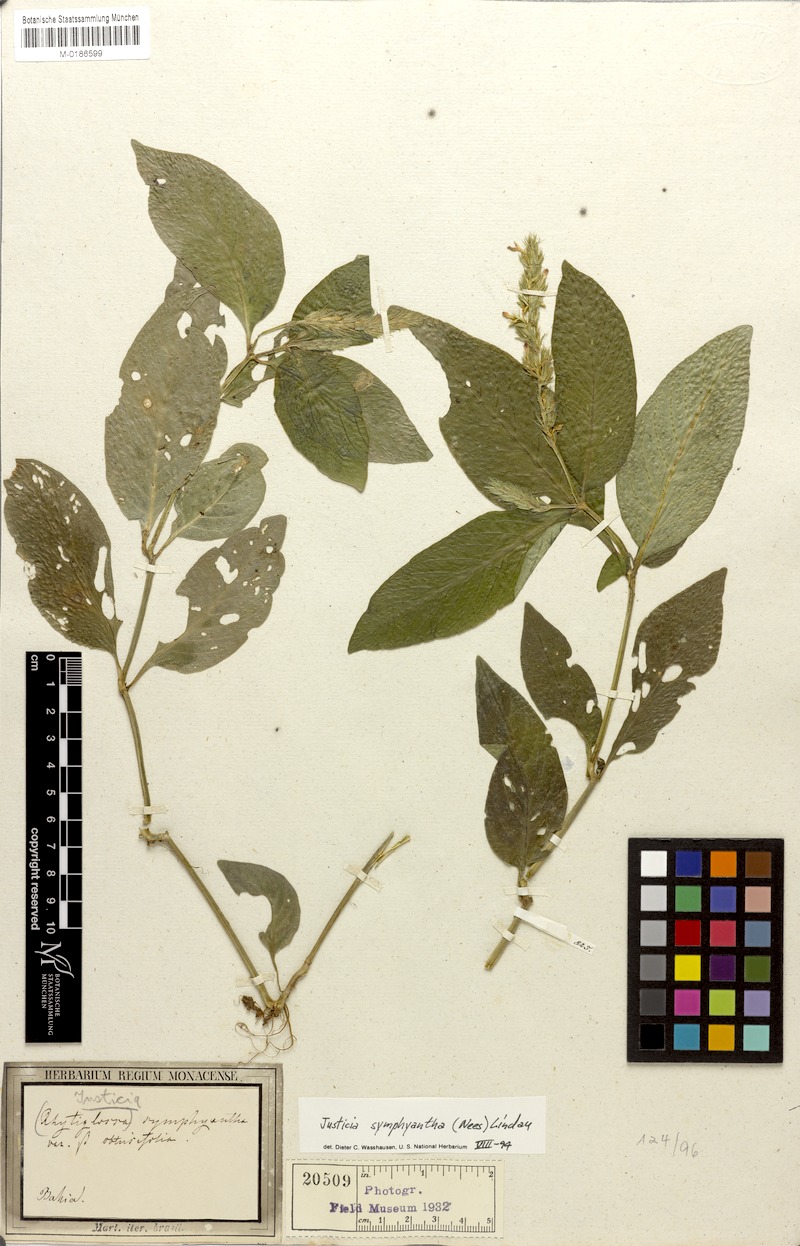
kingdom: Plantae
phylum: Tracheophyta
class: Magnoliopsida
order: Lamiales
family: Acanthaceae
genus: Justicia
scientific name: Justicia symphyantha
